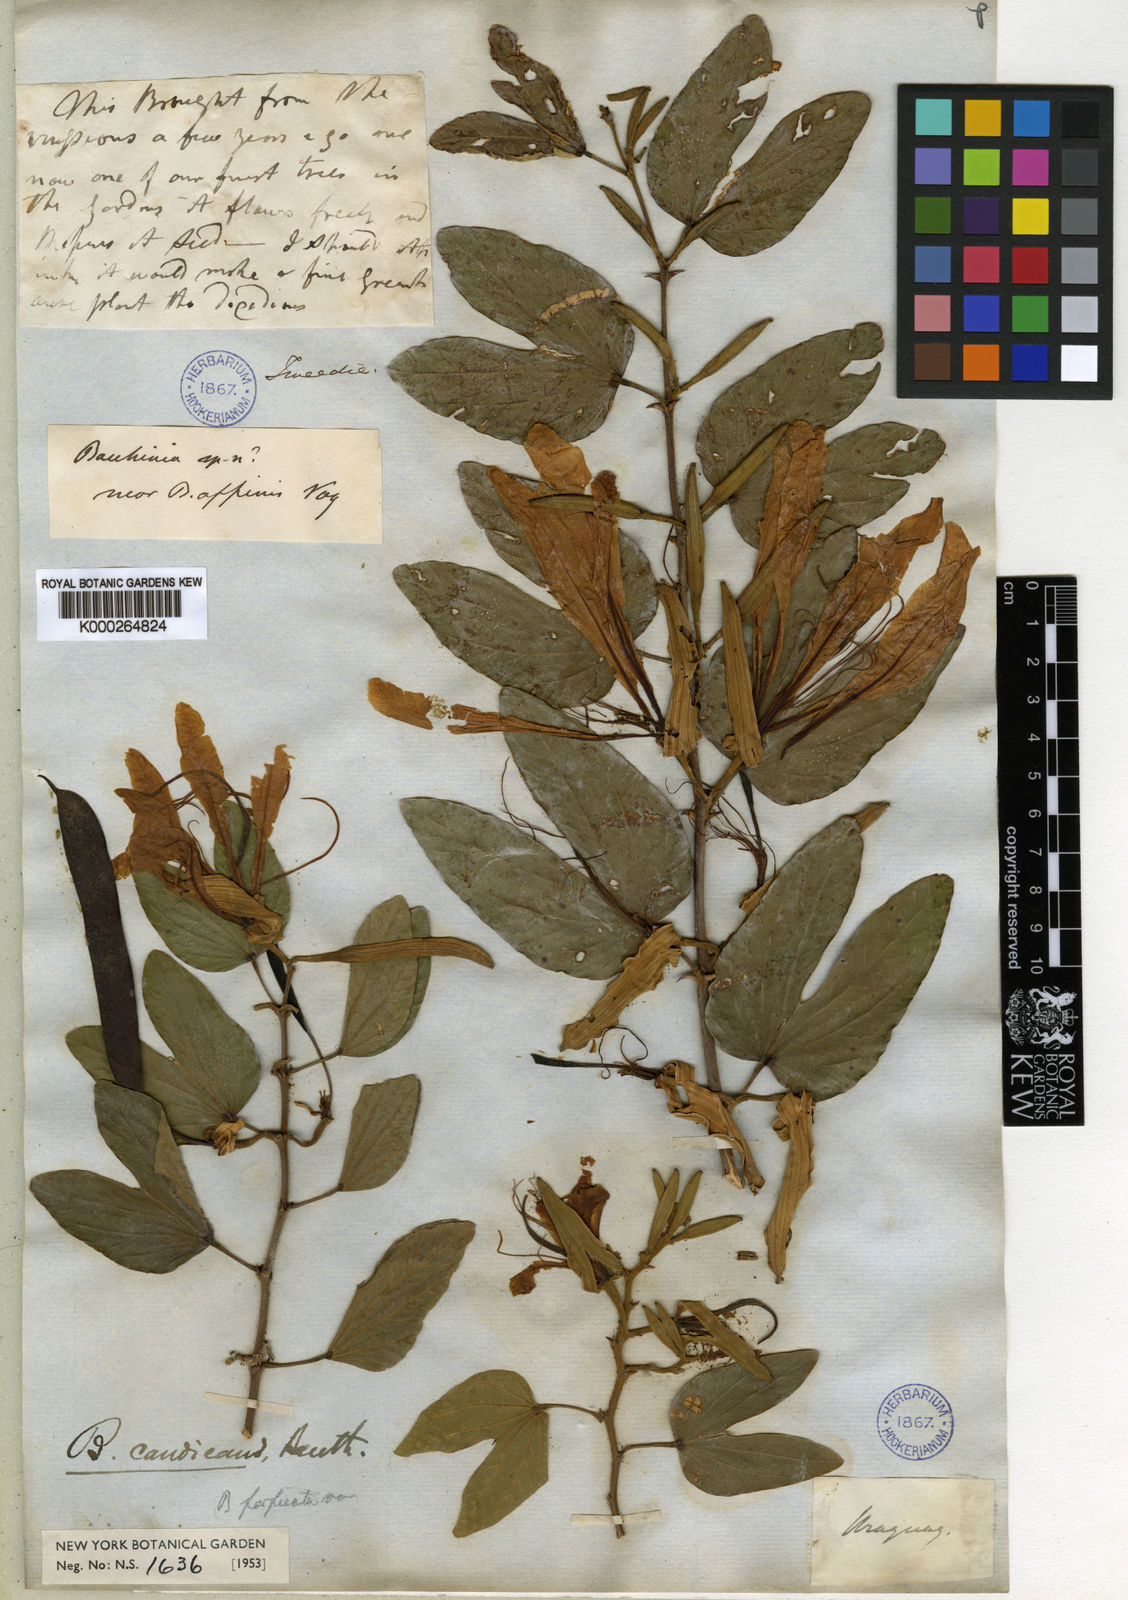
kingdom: Plantae
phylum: Tracheophyta
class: Magnoliopsida
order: Fabales
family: Fabaceae
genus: Bauhinia
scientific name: Bauhinia forficata
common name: Orchid tree
